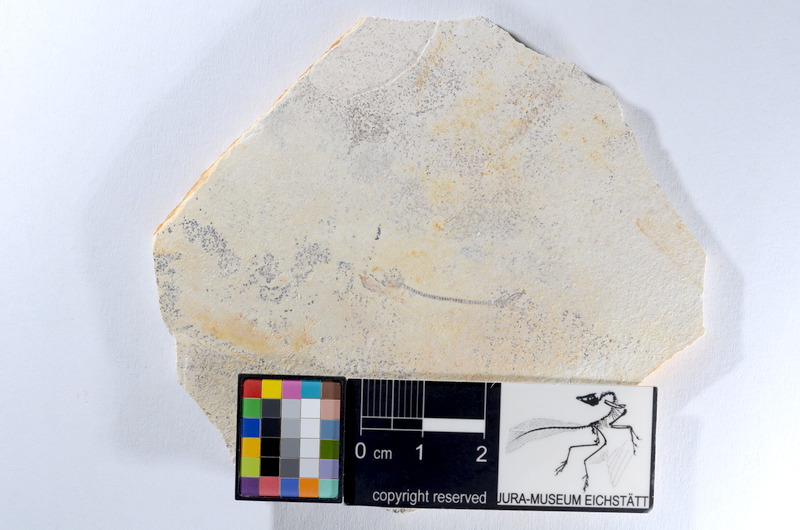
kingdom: Animalia
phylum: Chordata
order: Salmoniformes
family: Orthogonikleithridae
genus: Orthogonikleithrus
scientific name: Orthogonikleithrus hoelli
